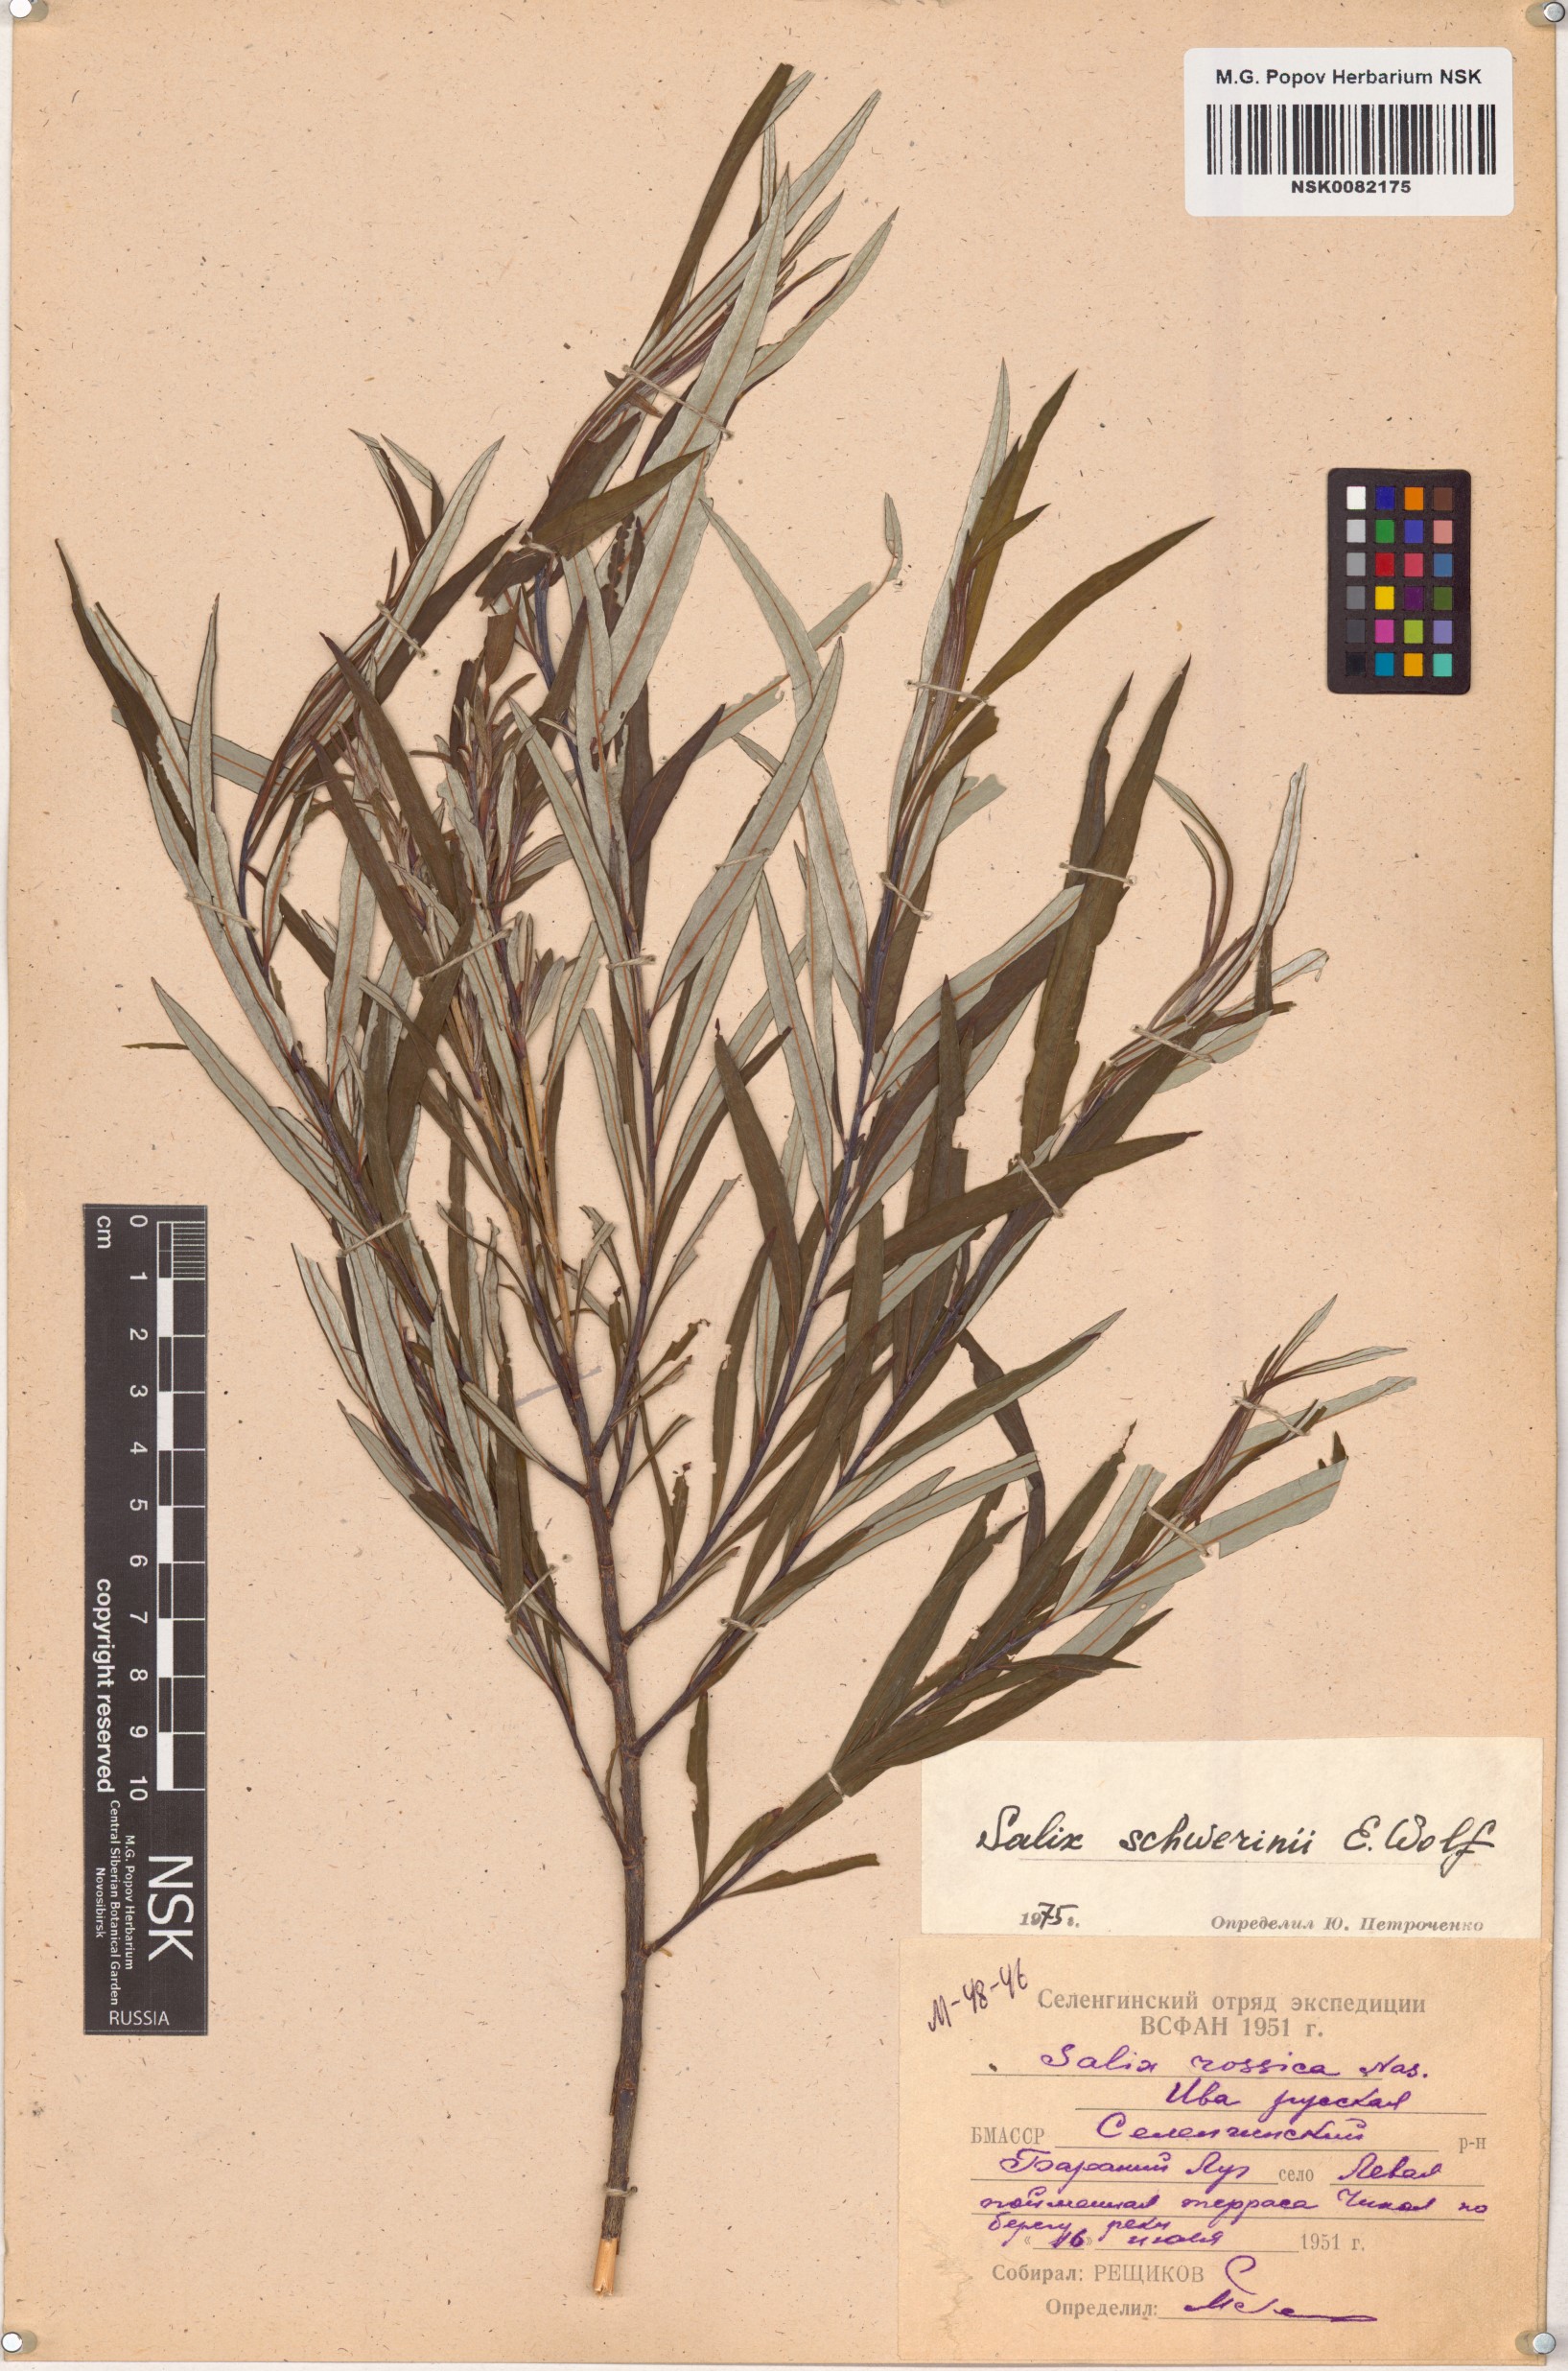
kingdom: Plantae
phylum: Tracheophyta
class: Magnoliopsida
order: Malpighiales
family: Salicaceae
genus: Salix
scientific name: Salix schwerinii
